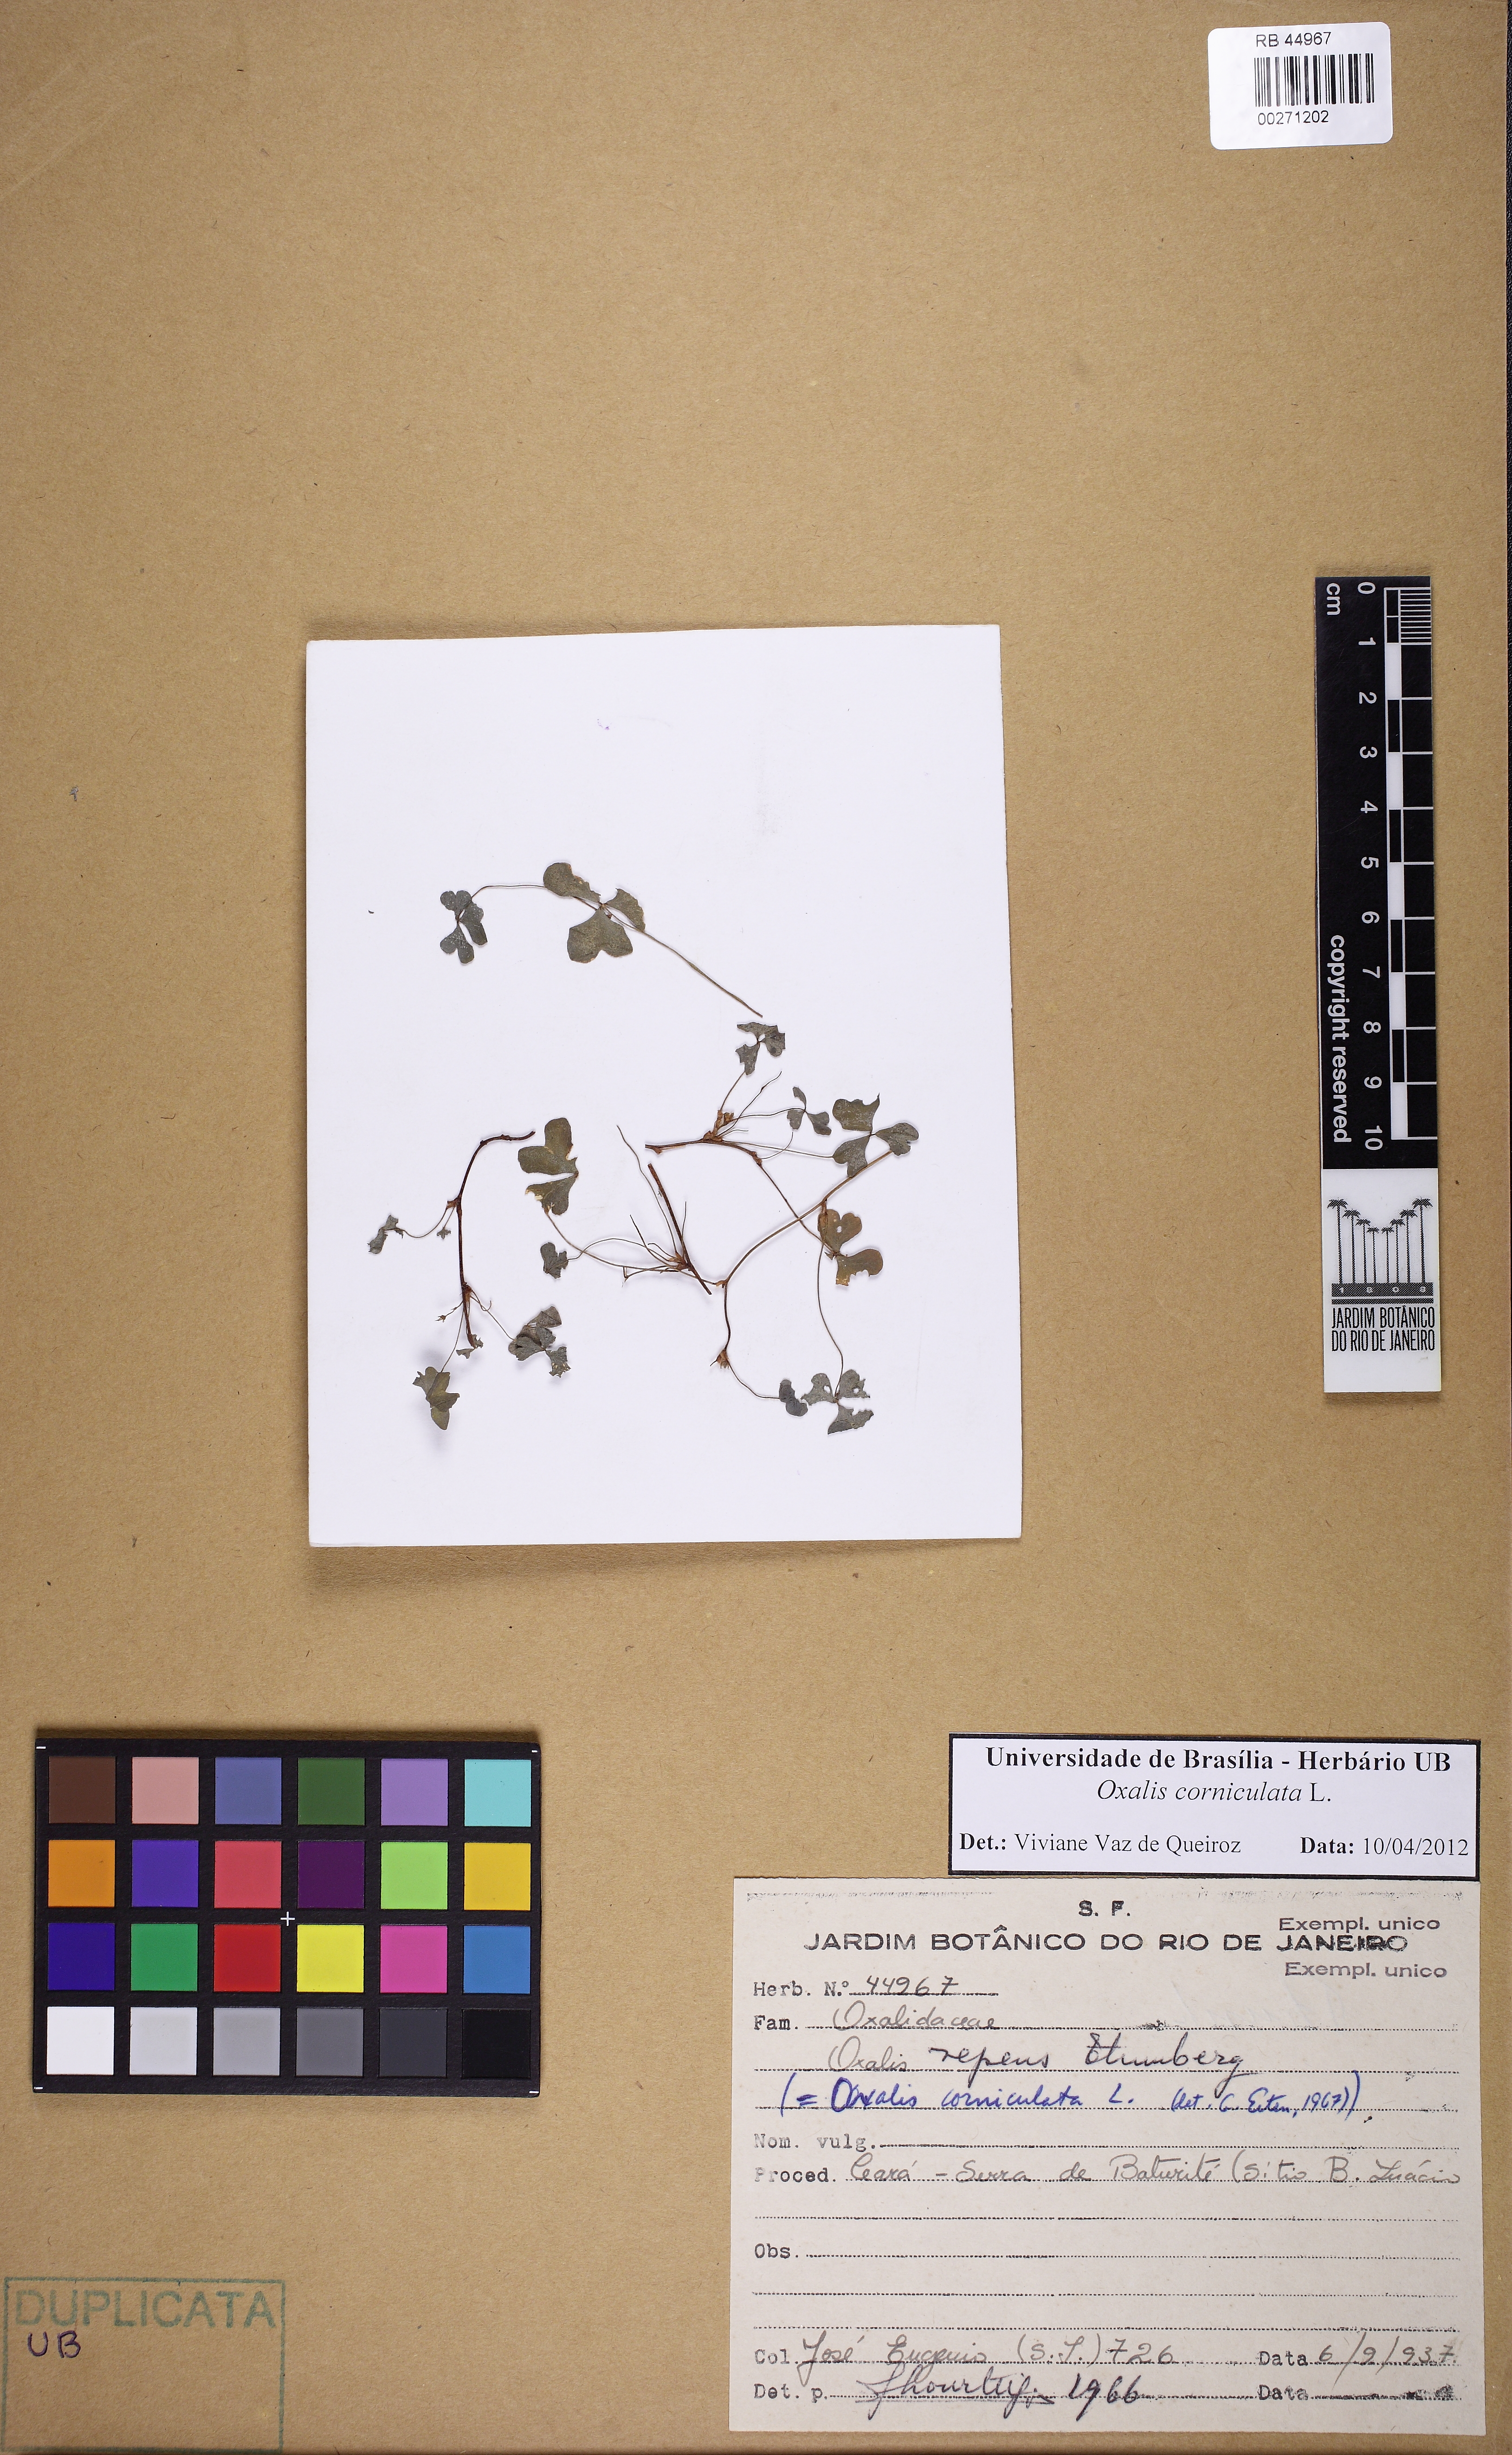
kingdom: Plantae
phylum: Tracheophyta
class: Magnoliopsida
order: Oxalidales
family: Oxalidaceae
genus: Oxalis
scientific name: Oxalis corniculata
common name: Procumbent yellow-sorrel
